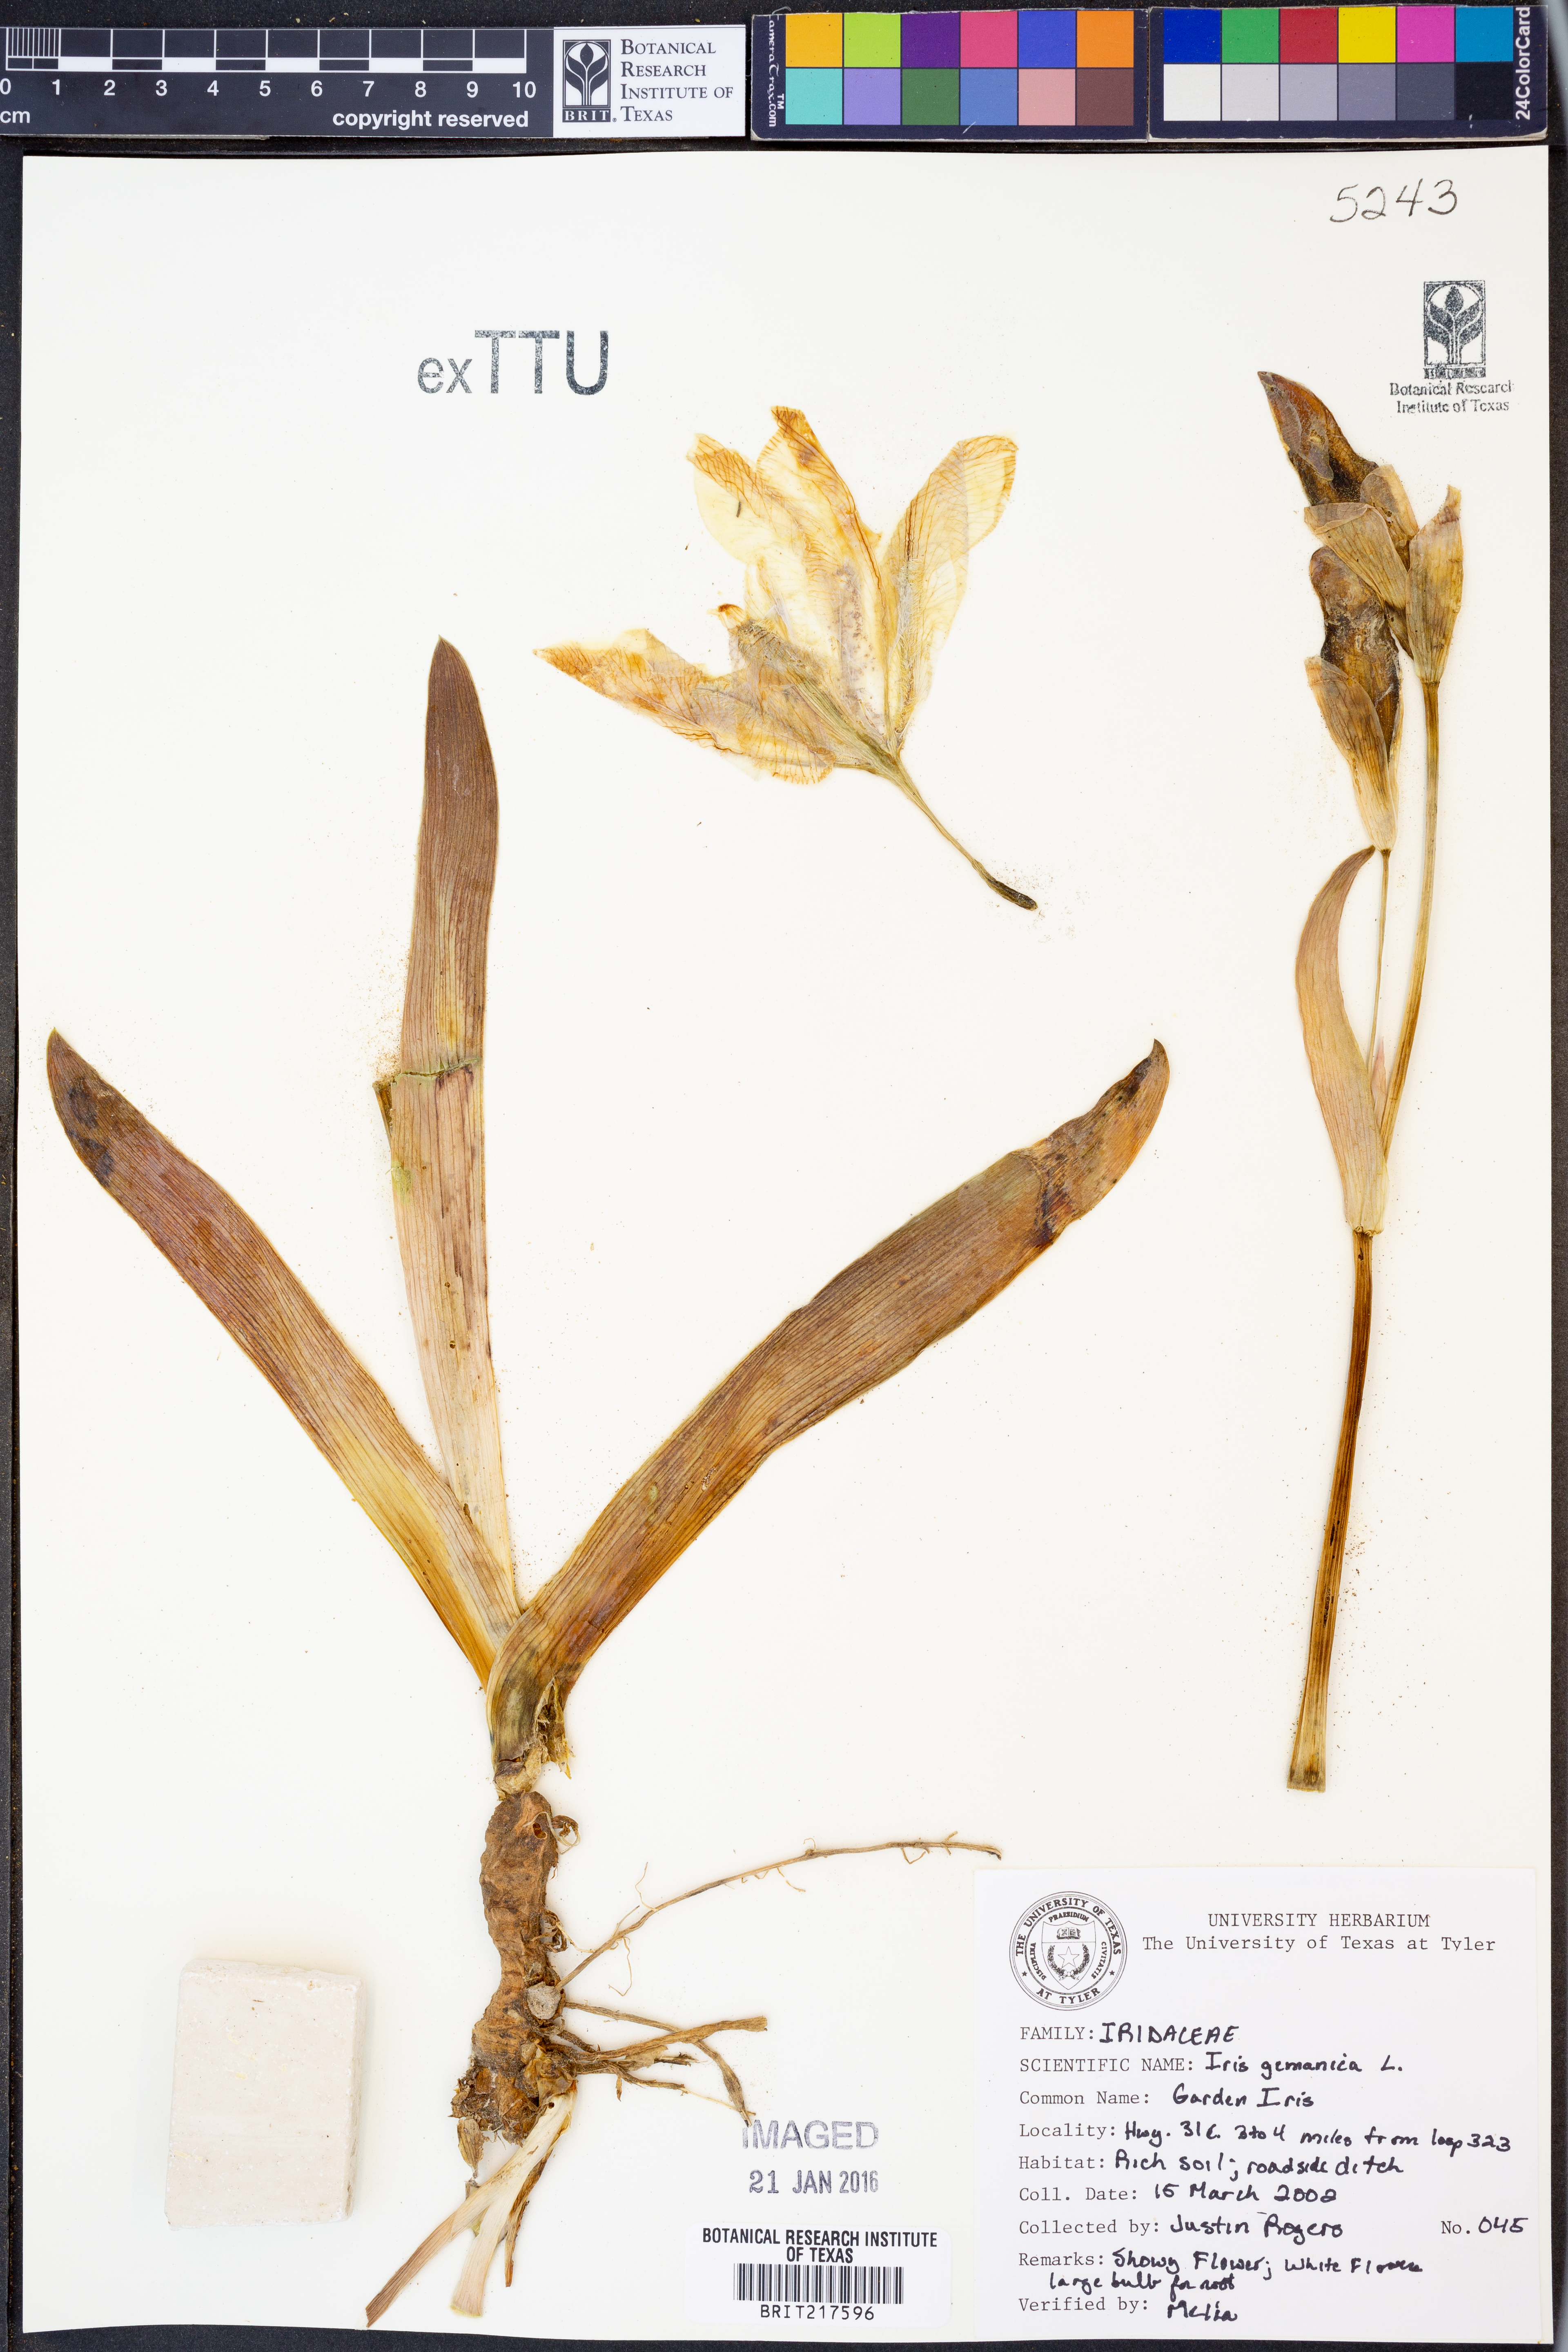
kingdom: Plantae
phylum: Tracheophyta
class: Liliopsida
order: Asparagales
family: Iridaceae
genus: Iris
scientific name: Iris germanica
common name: German iris
